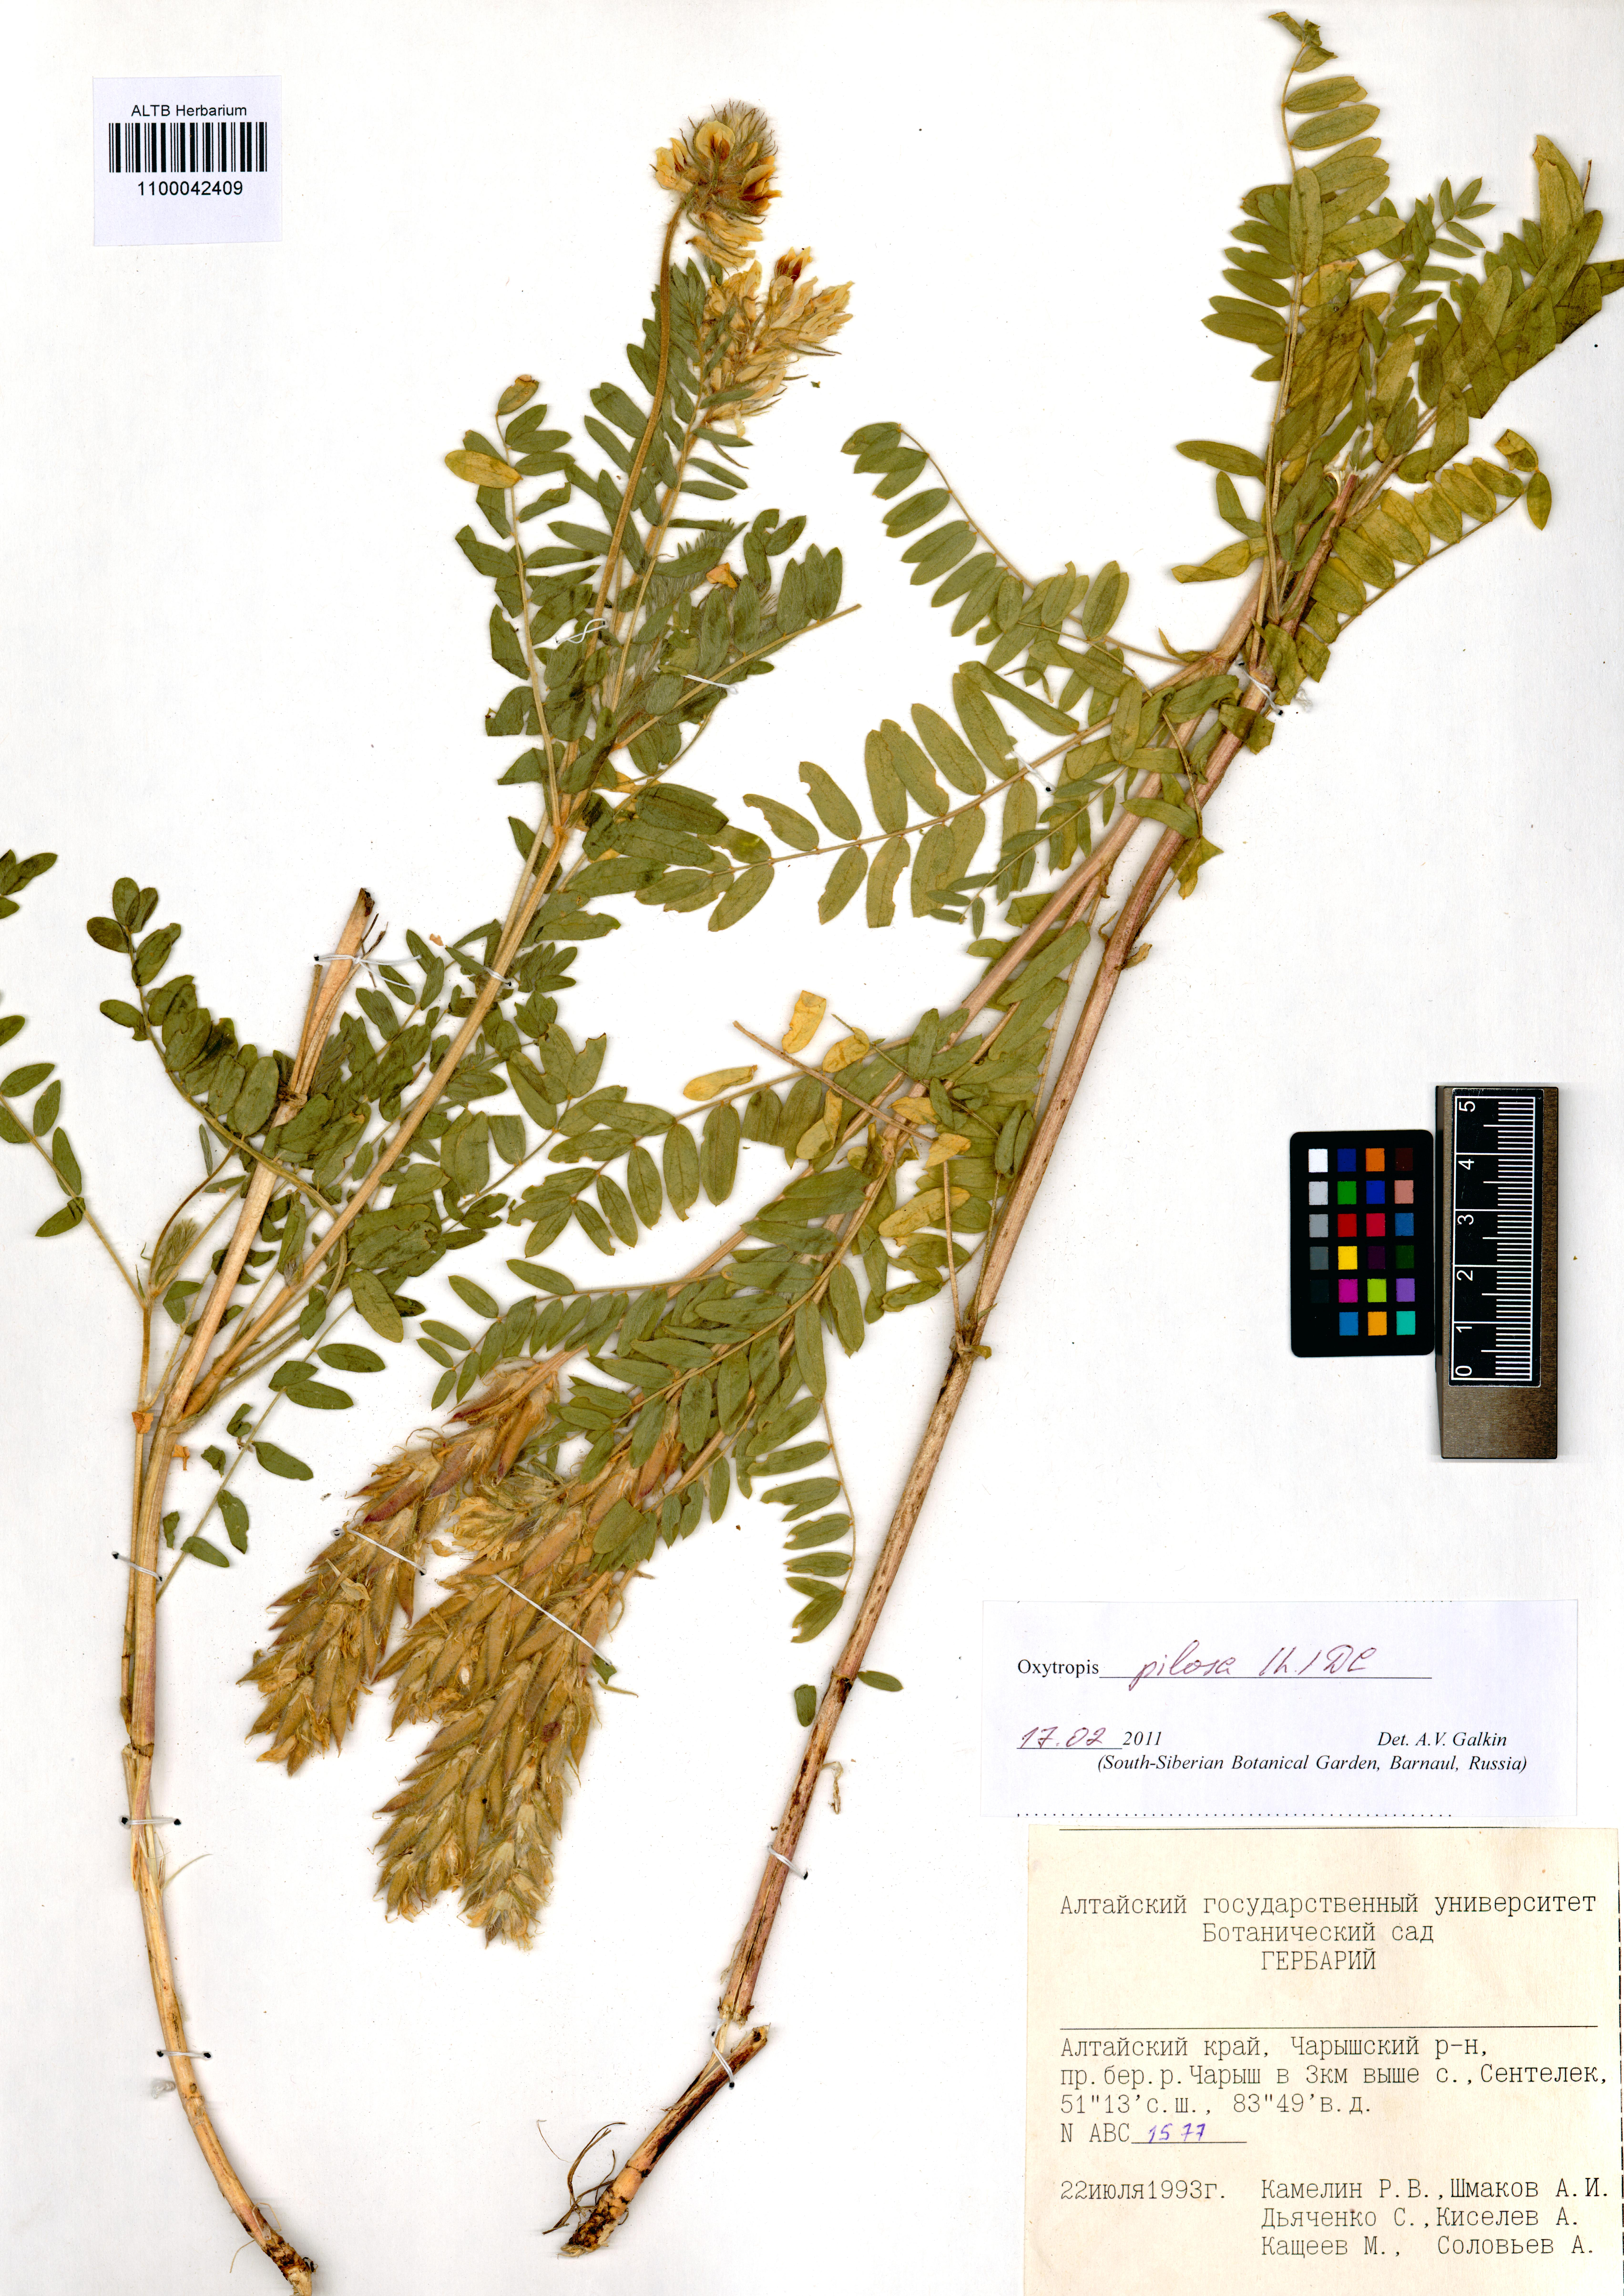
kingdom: Plantae
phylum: Tracheophyta
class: Magnoliopsida
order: Fabales
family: Fabaceae
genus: Oxytropis
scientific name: Oxytropis pilosa
